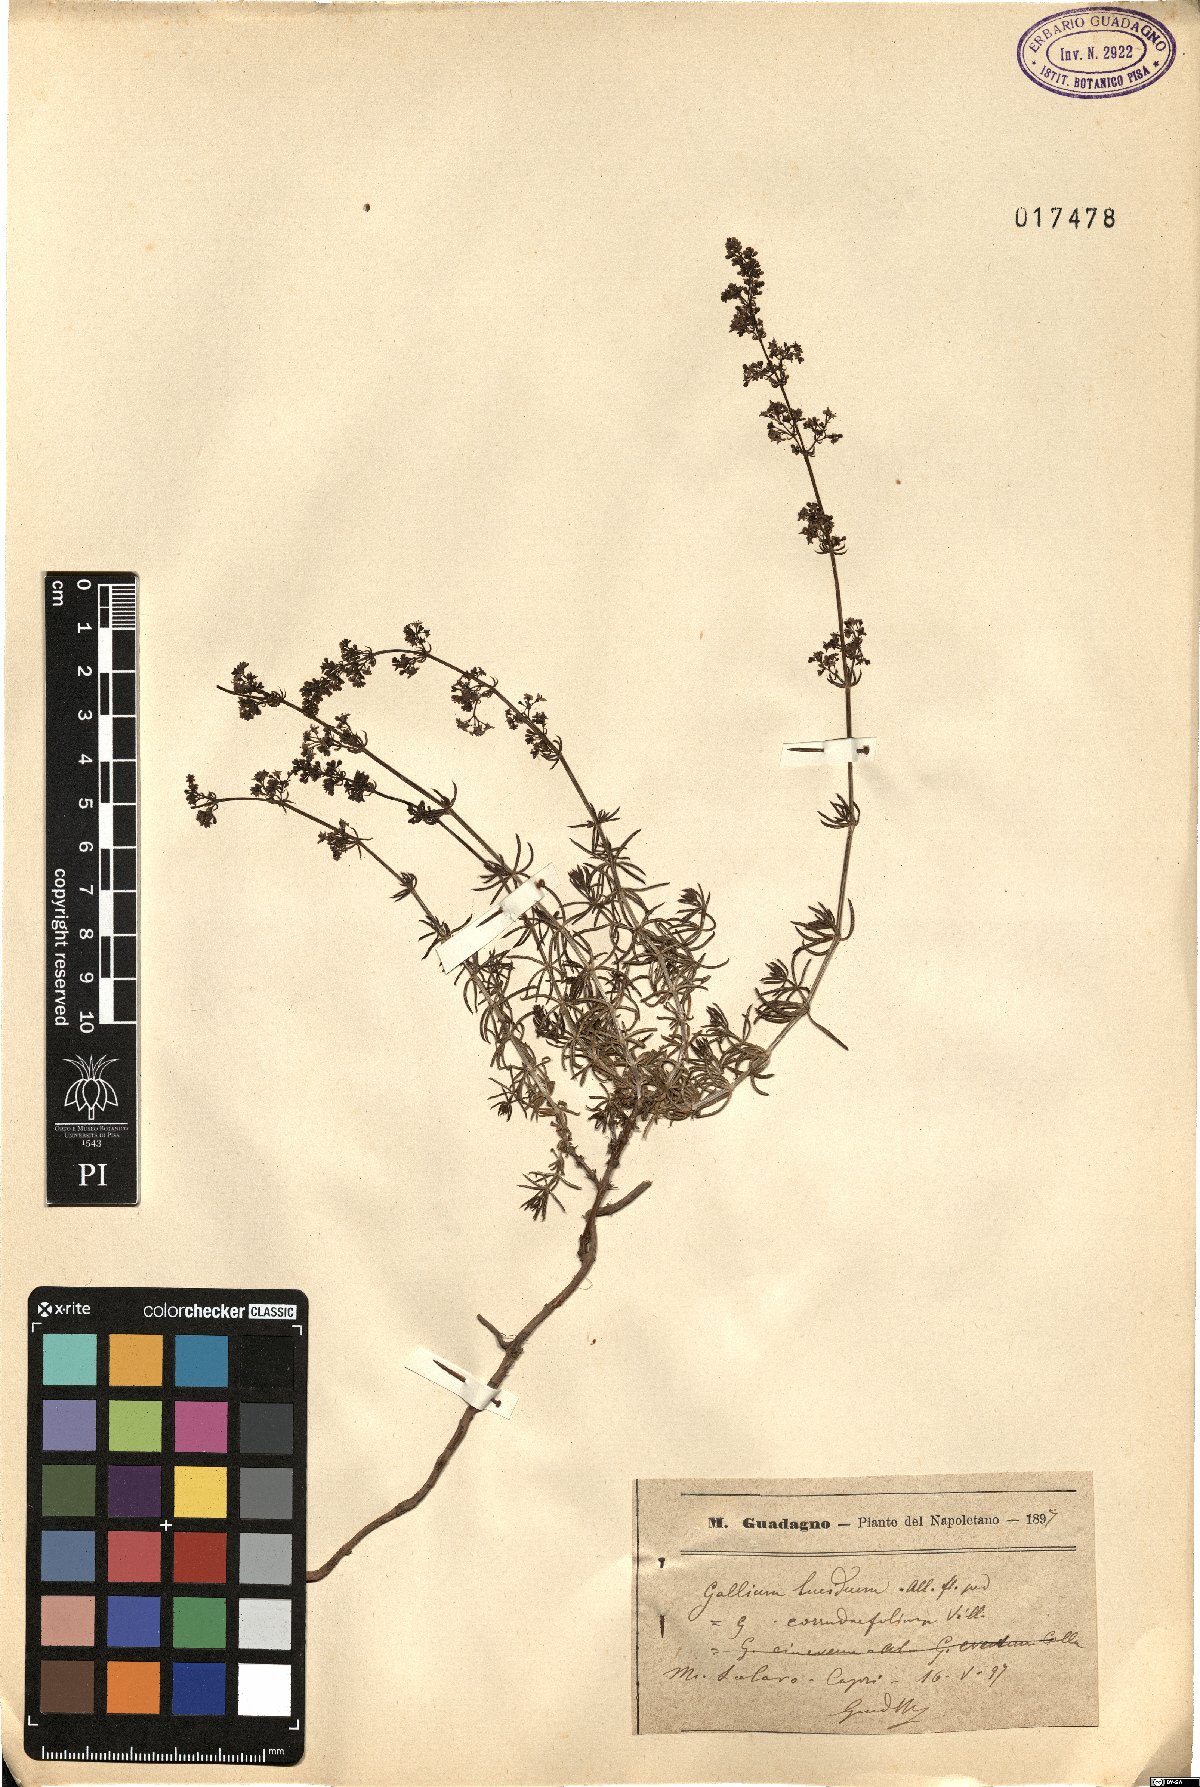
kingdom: Plantae
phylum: Tracheophyta
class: Magnoliopsida
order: Gentianales
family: Rubiaceae
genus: Galium
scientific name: Galium lucidum
